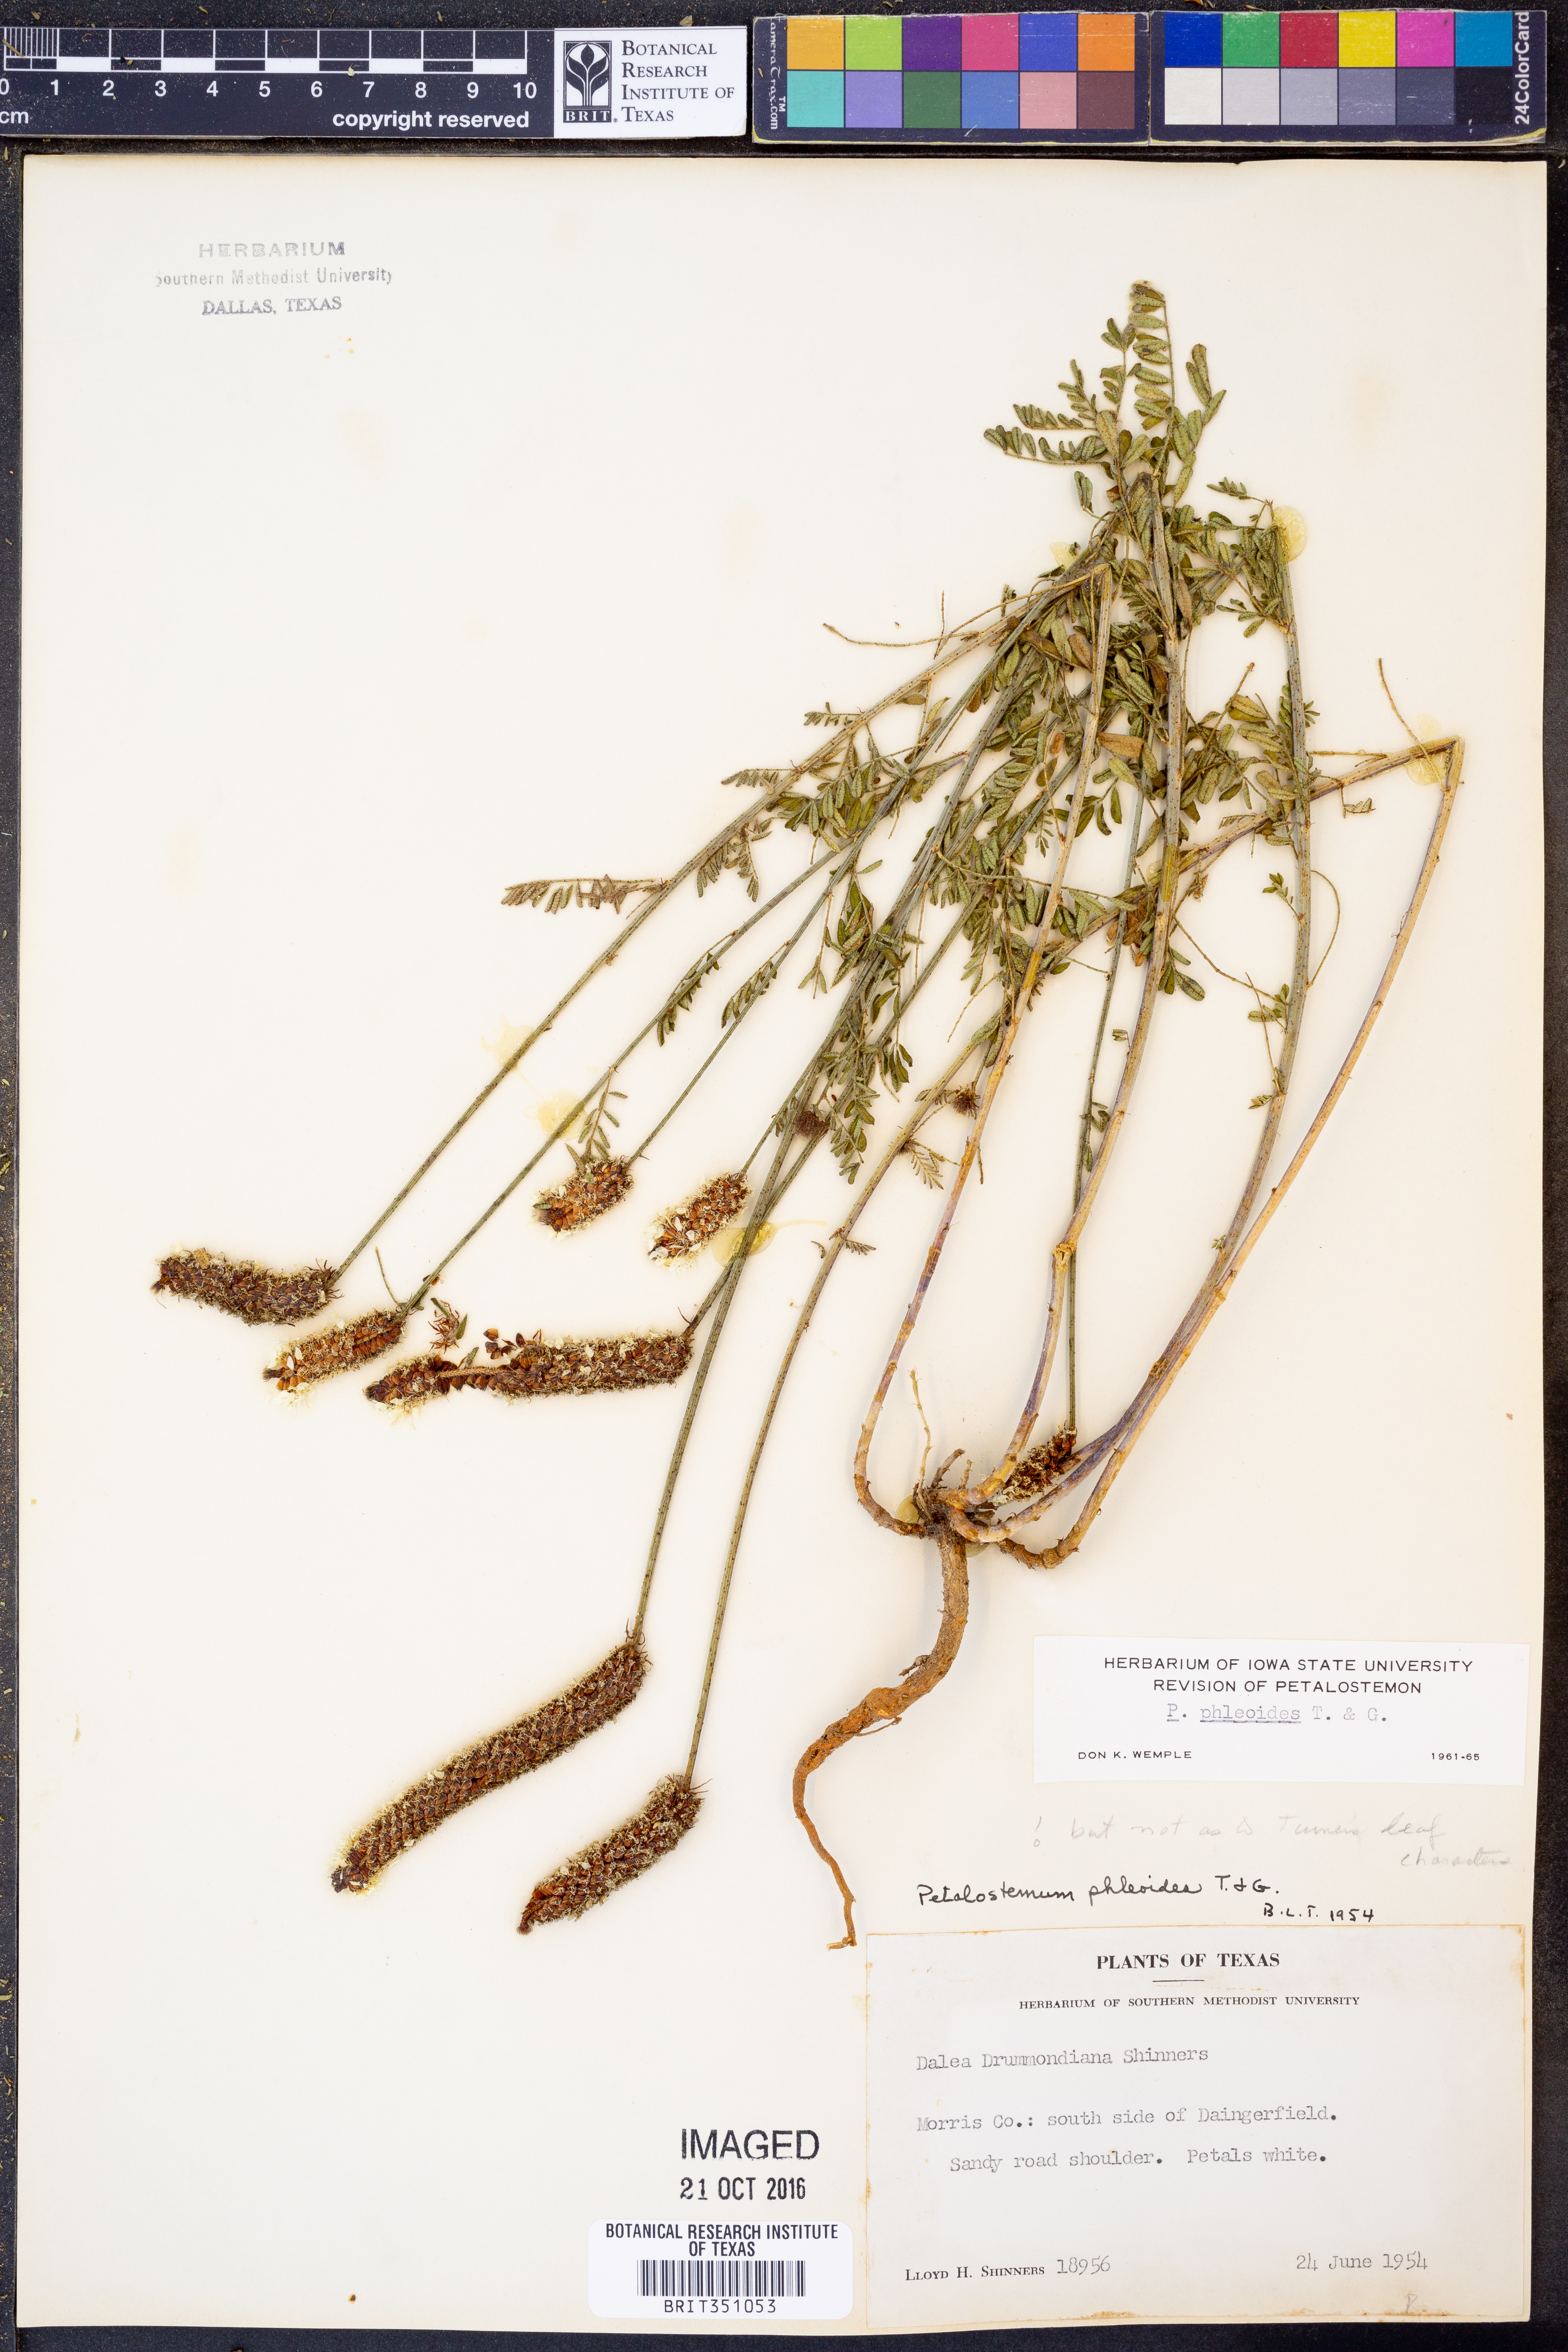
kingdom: Plantae
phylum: Tracheophyta
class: Magnoliopsida
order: Fabales
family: Fabaceae
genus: Dalea
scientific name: Dalea phleoides
